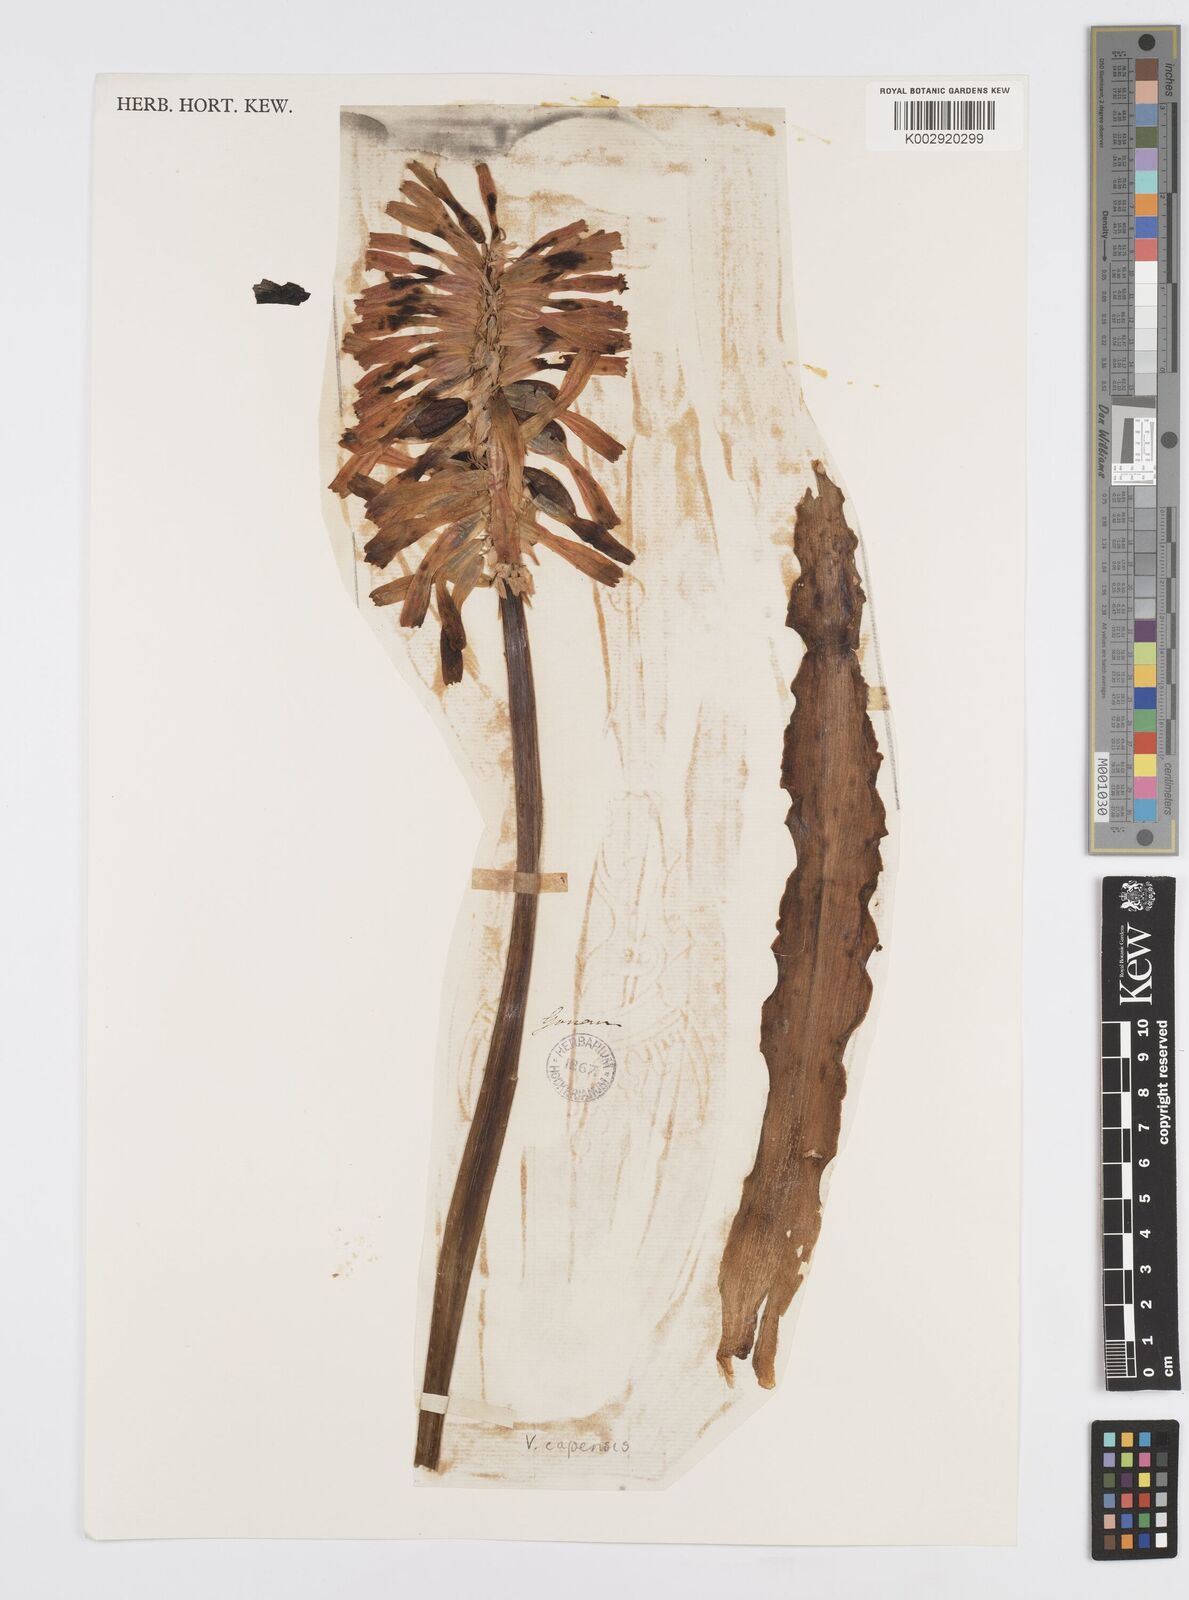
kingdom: Plantae
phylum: Tracheophyta
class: Liliopsida
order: Asparagales
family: Asparagaceae
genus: Veltheimia
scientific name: Veltheimia capensis
